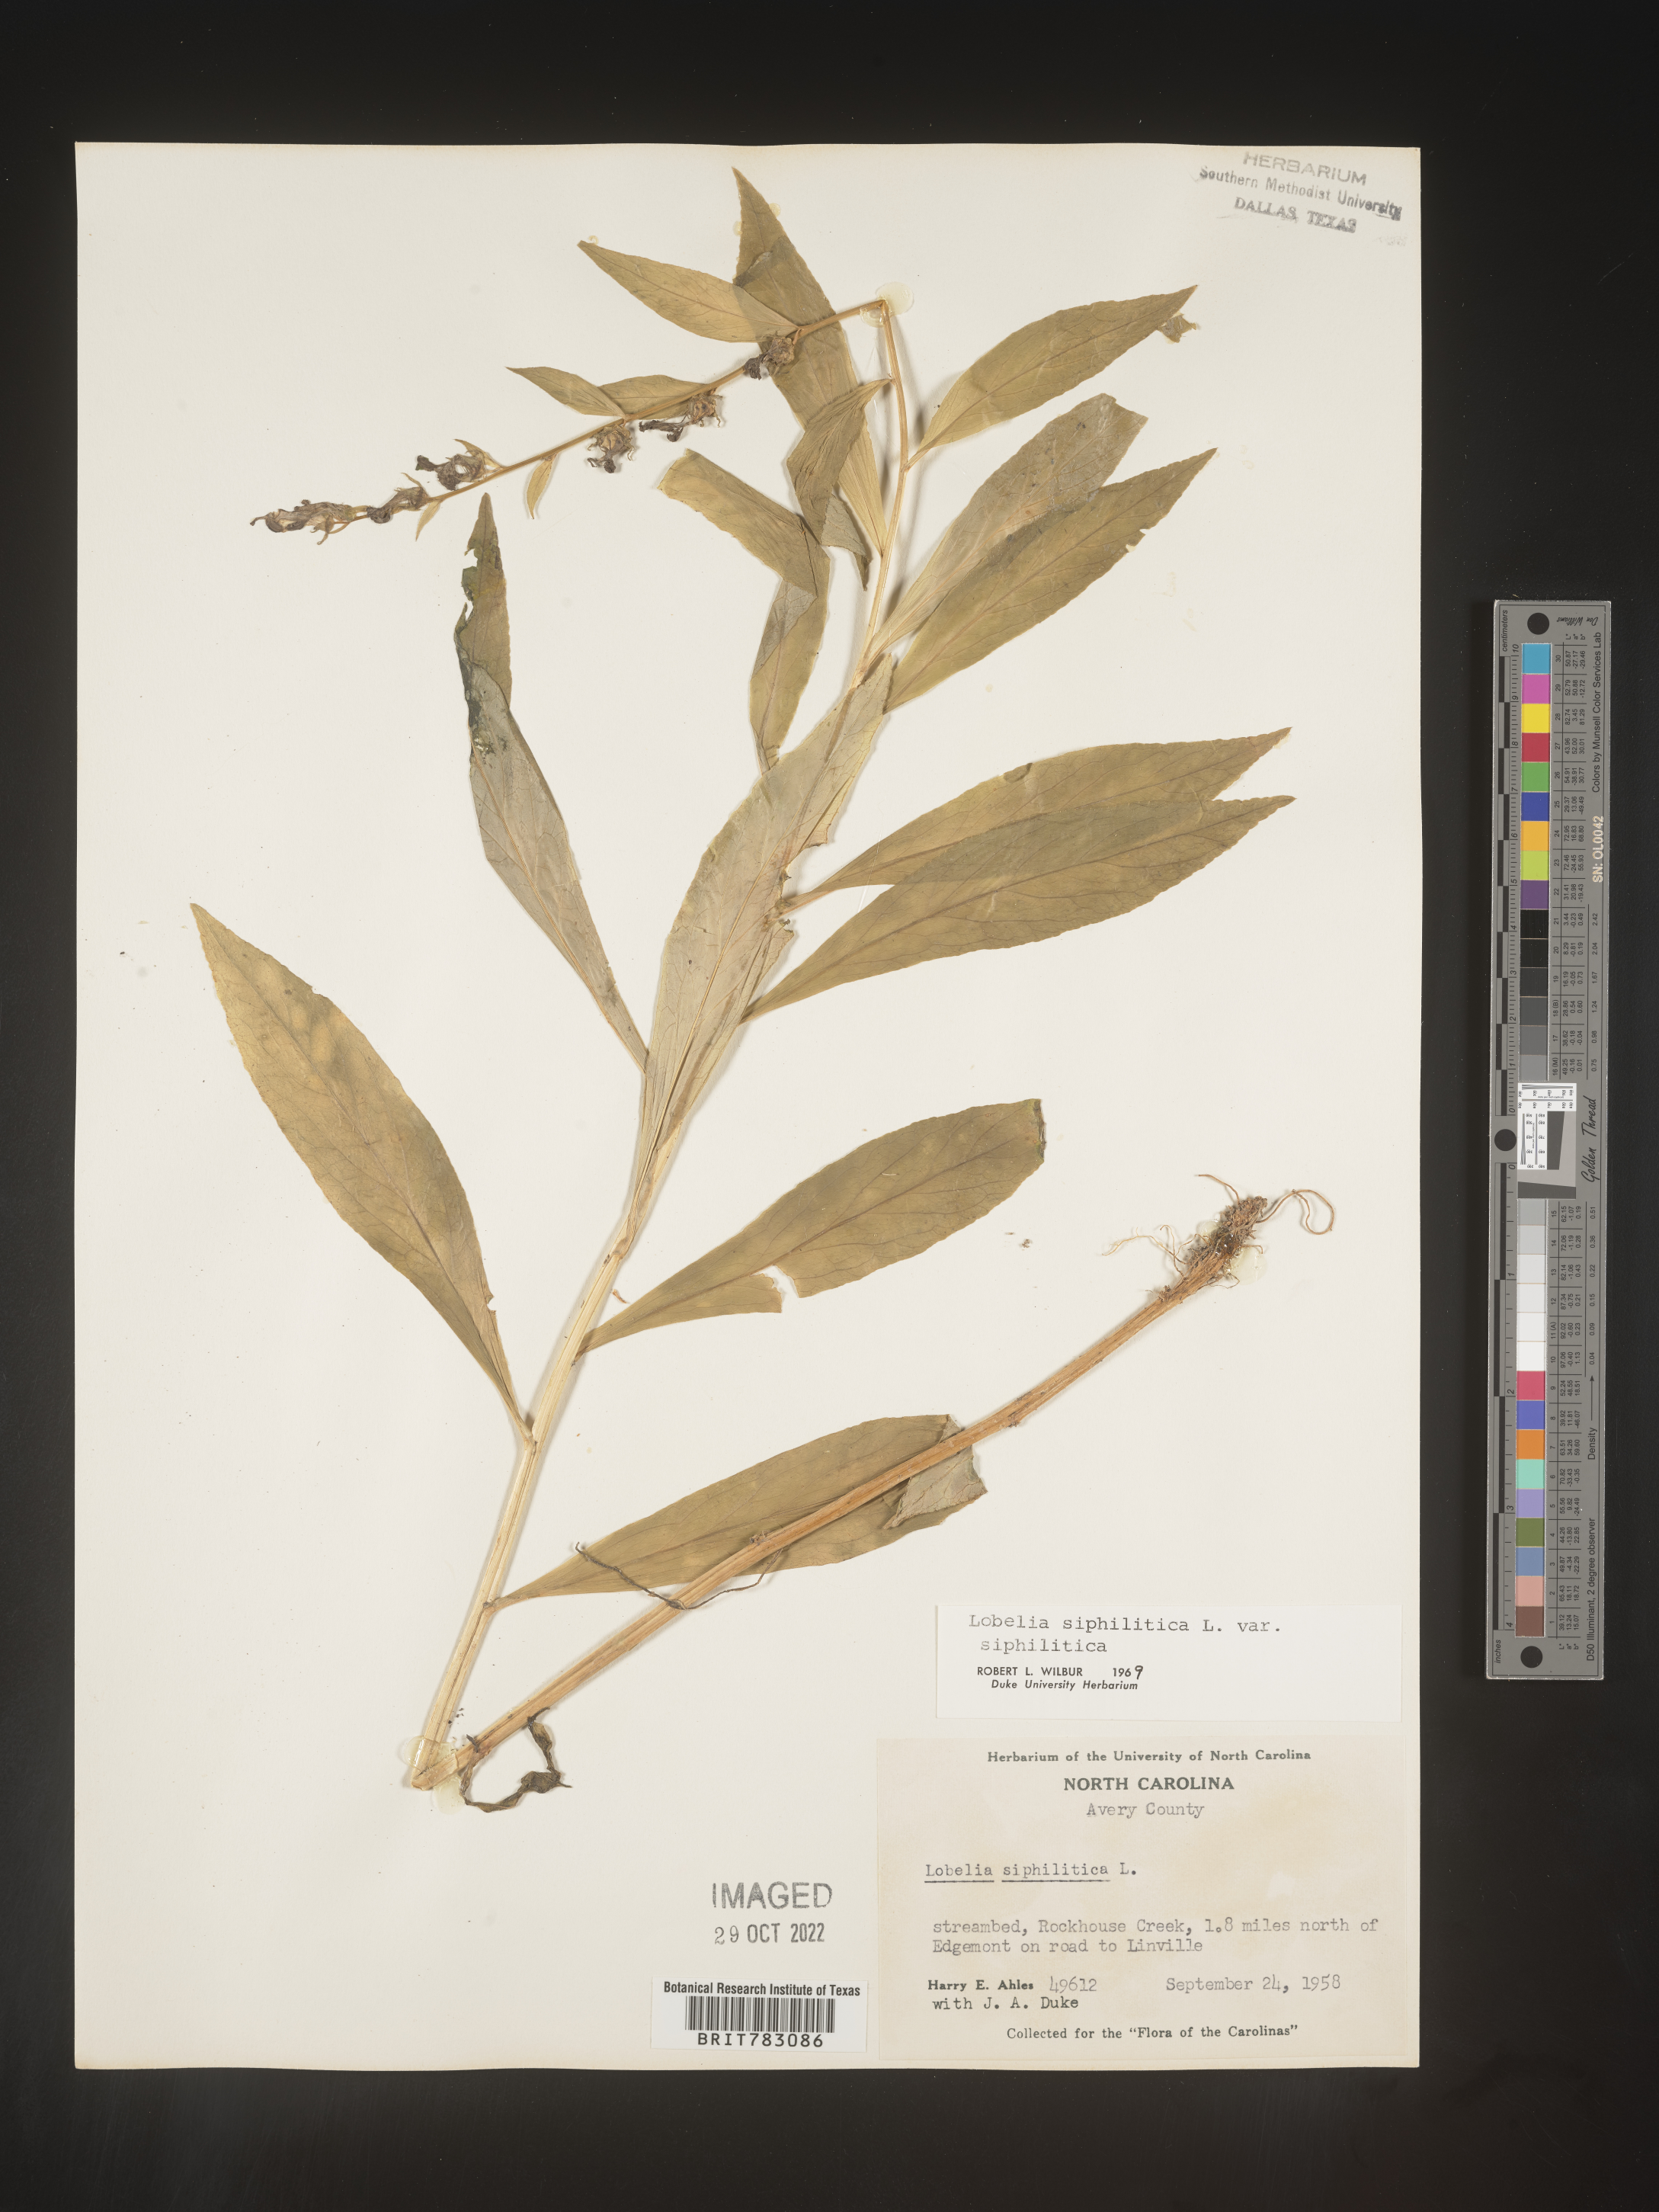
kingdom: Plantae
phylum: Tracheophyta
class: Magnoliopsida
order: Asterales
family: Campanulaceae
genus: Lobelia
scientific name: Lobelia siphilitica
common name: Great lobelia
